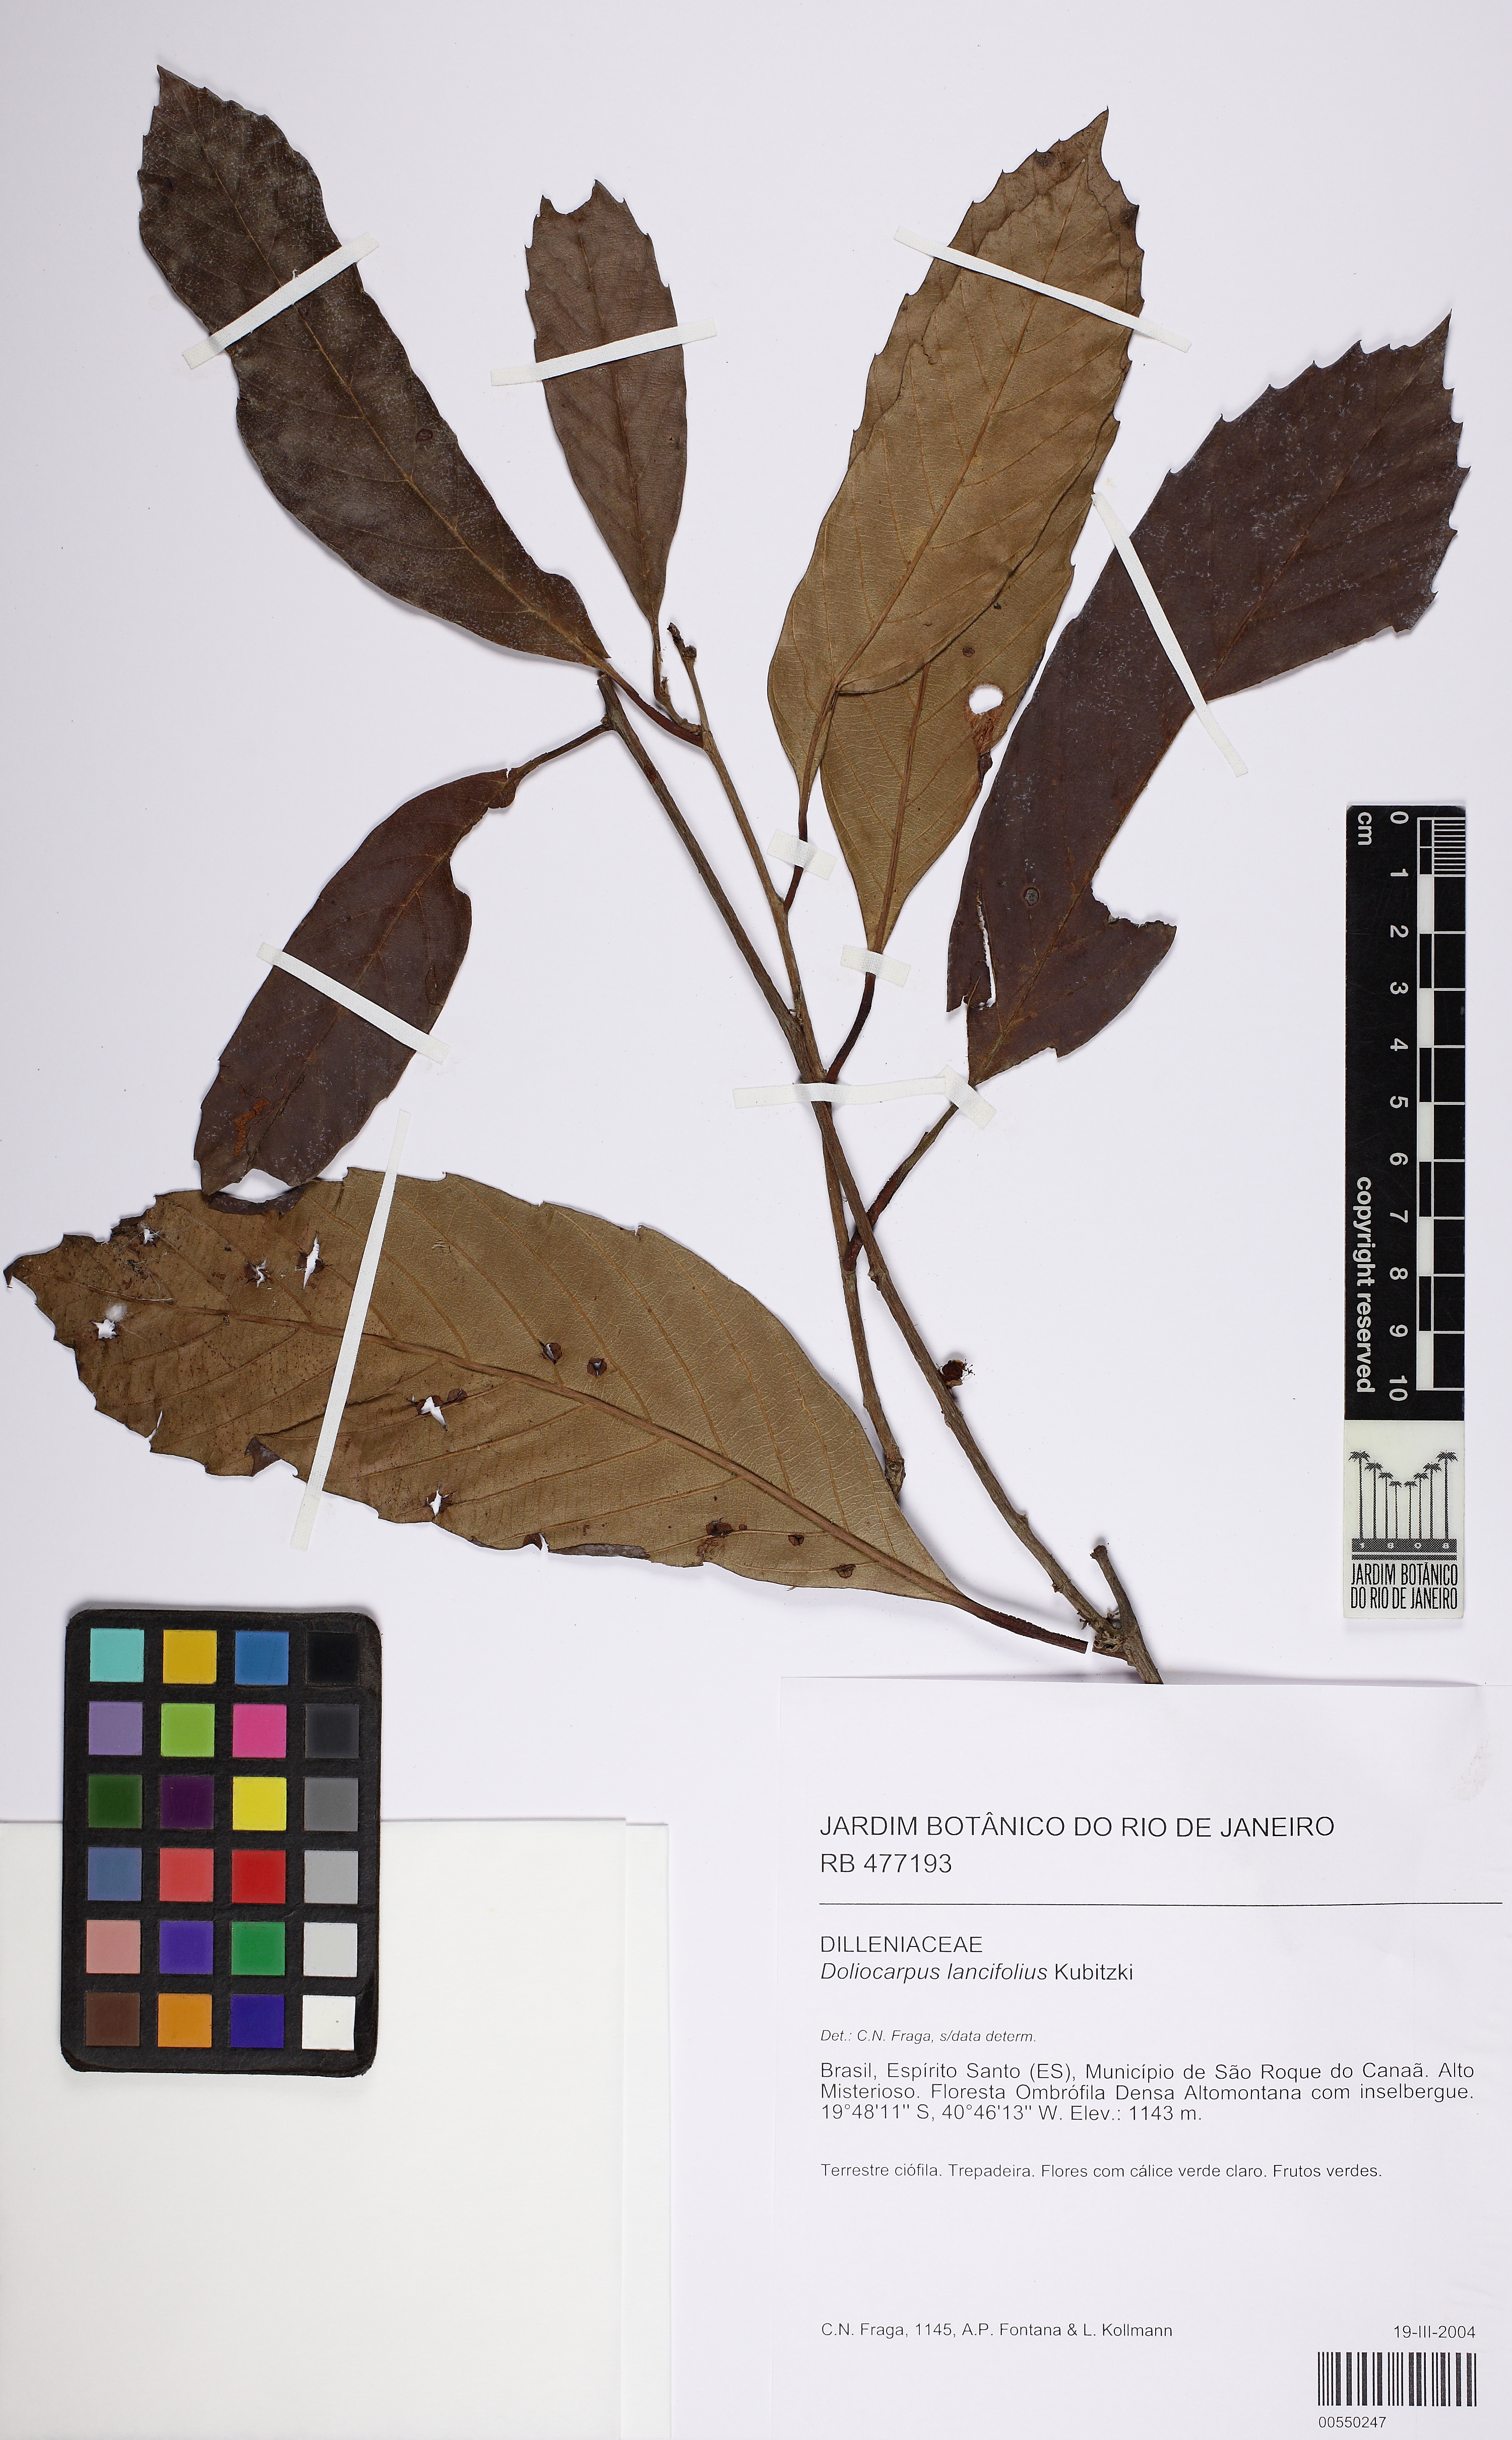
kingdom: Plantae
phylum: Tracheophyta
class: Magnoliopsida
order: Dilleniales
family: Dilleniaceae
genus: Doliocarpus
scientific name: Doliocarpus lancifolius
